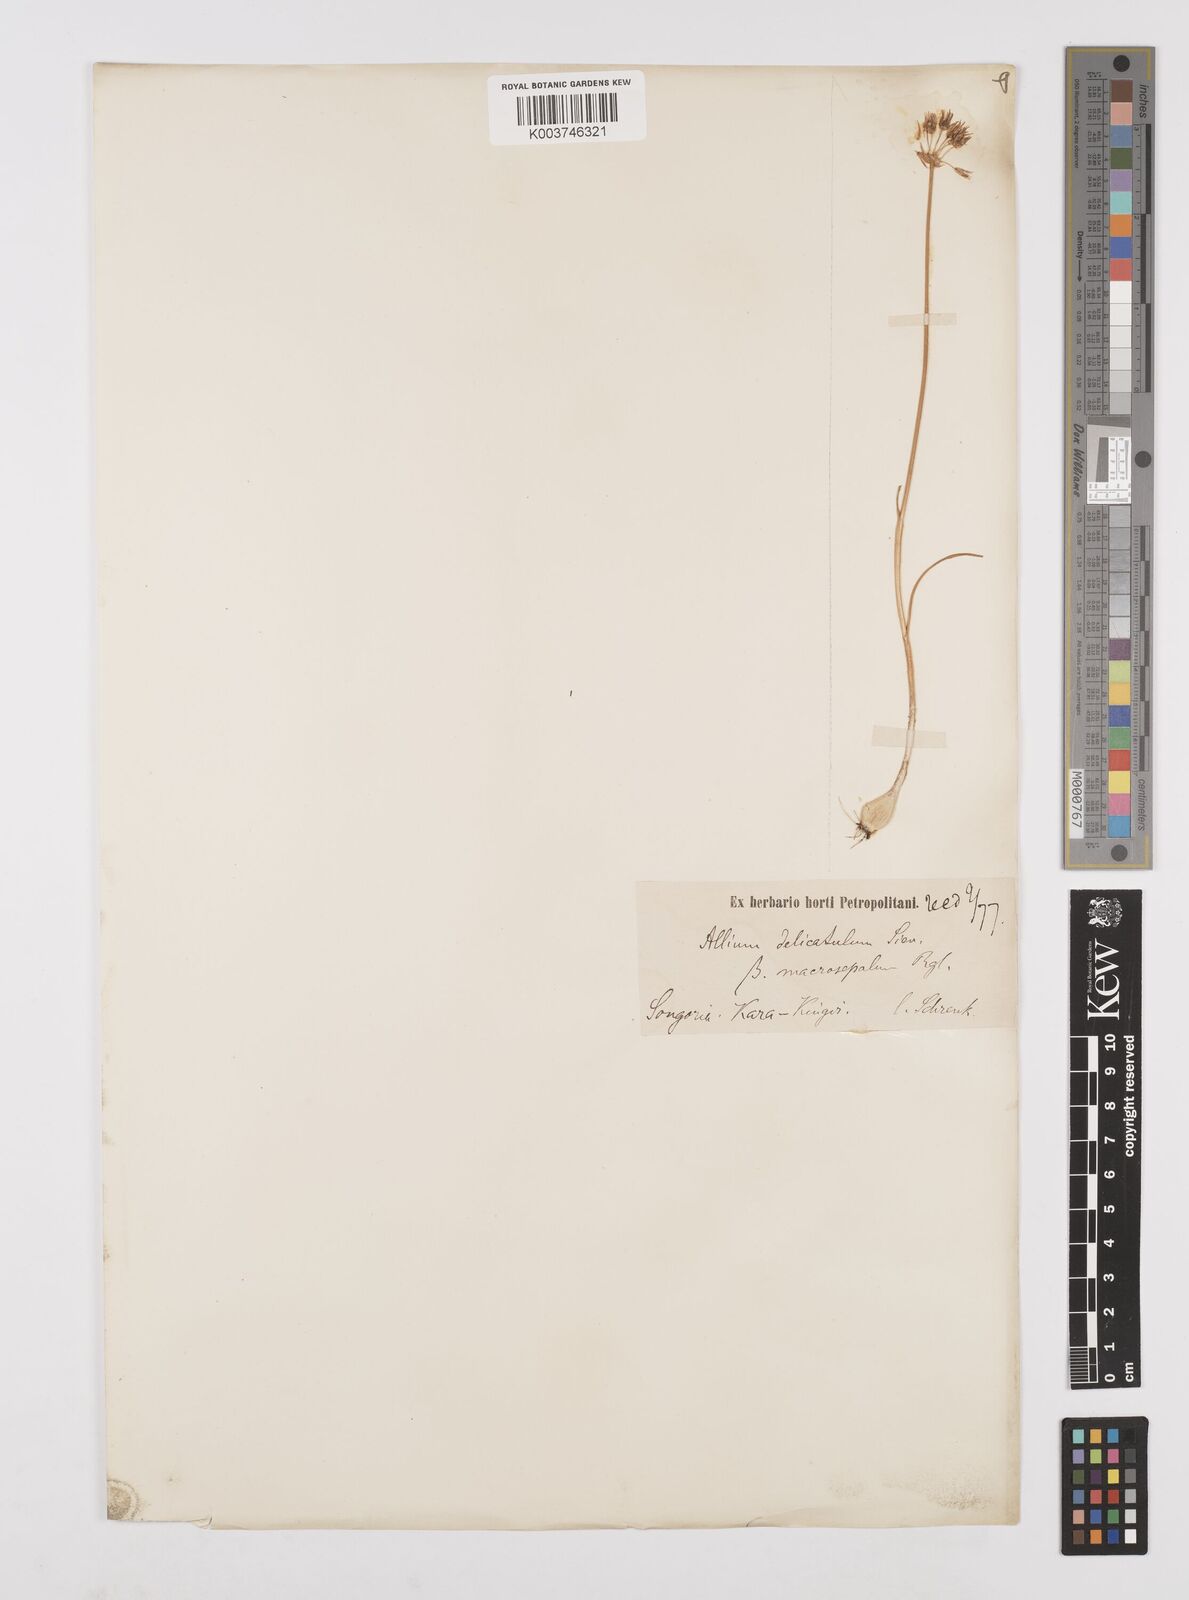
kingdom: Plantae
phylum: Tracheophyta
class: Liliopsida
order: Asparagales
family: Amaryllidaceae
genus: Allium
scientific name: Allium delicatulum
